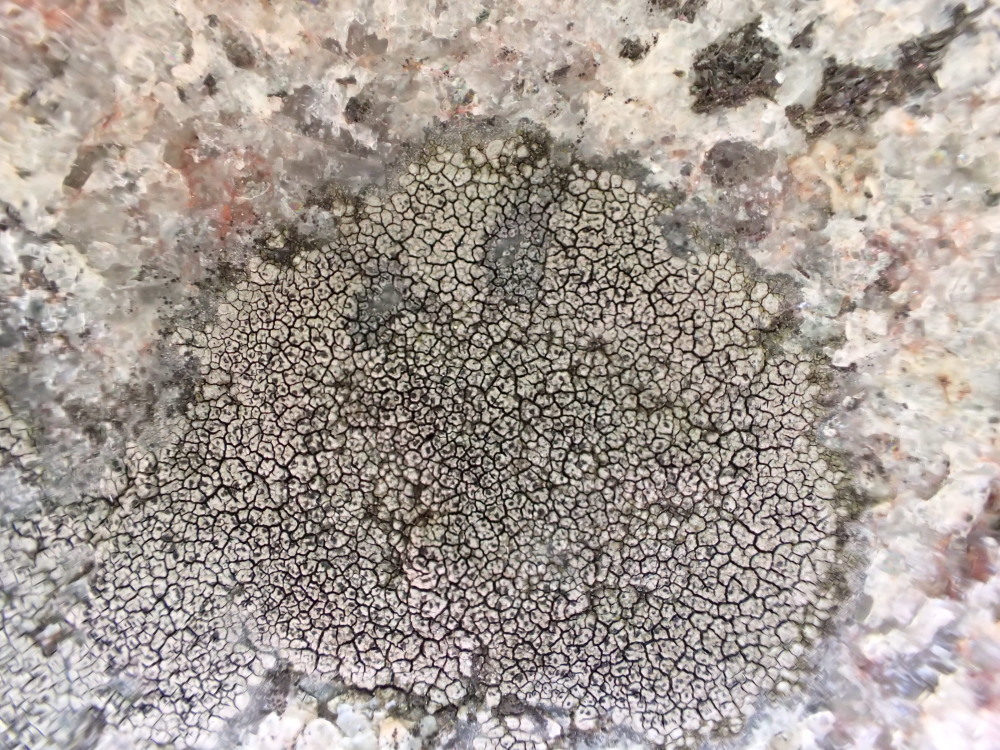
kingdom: Fungi
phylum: Ascomycota
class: Lecanoromycetes
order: Pertusariales
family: Megasporaceae
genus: Circinaria
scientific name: Circinaria caesiocinerea
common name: fuglestens-hulskivelav
